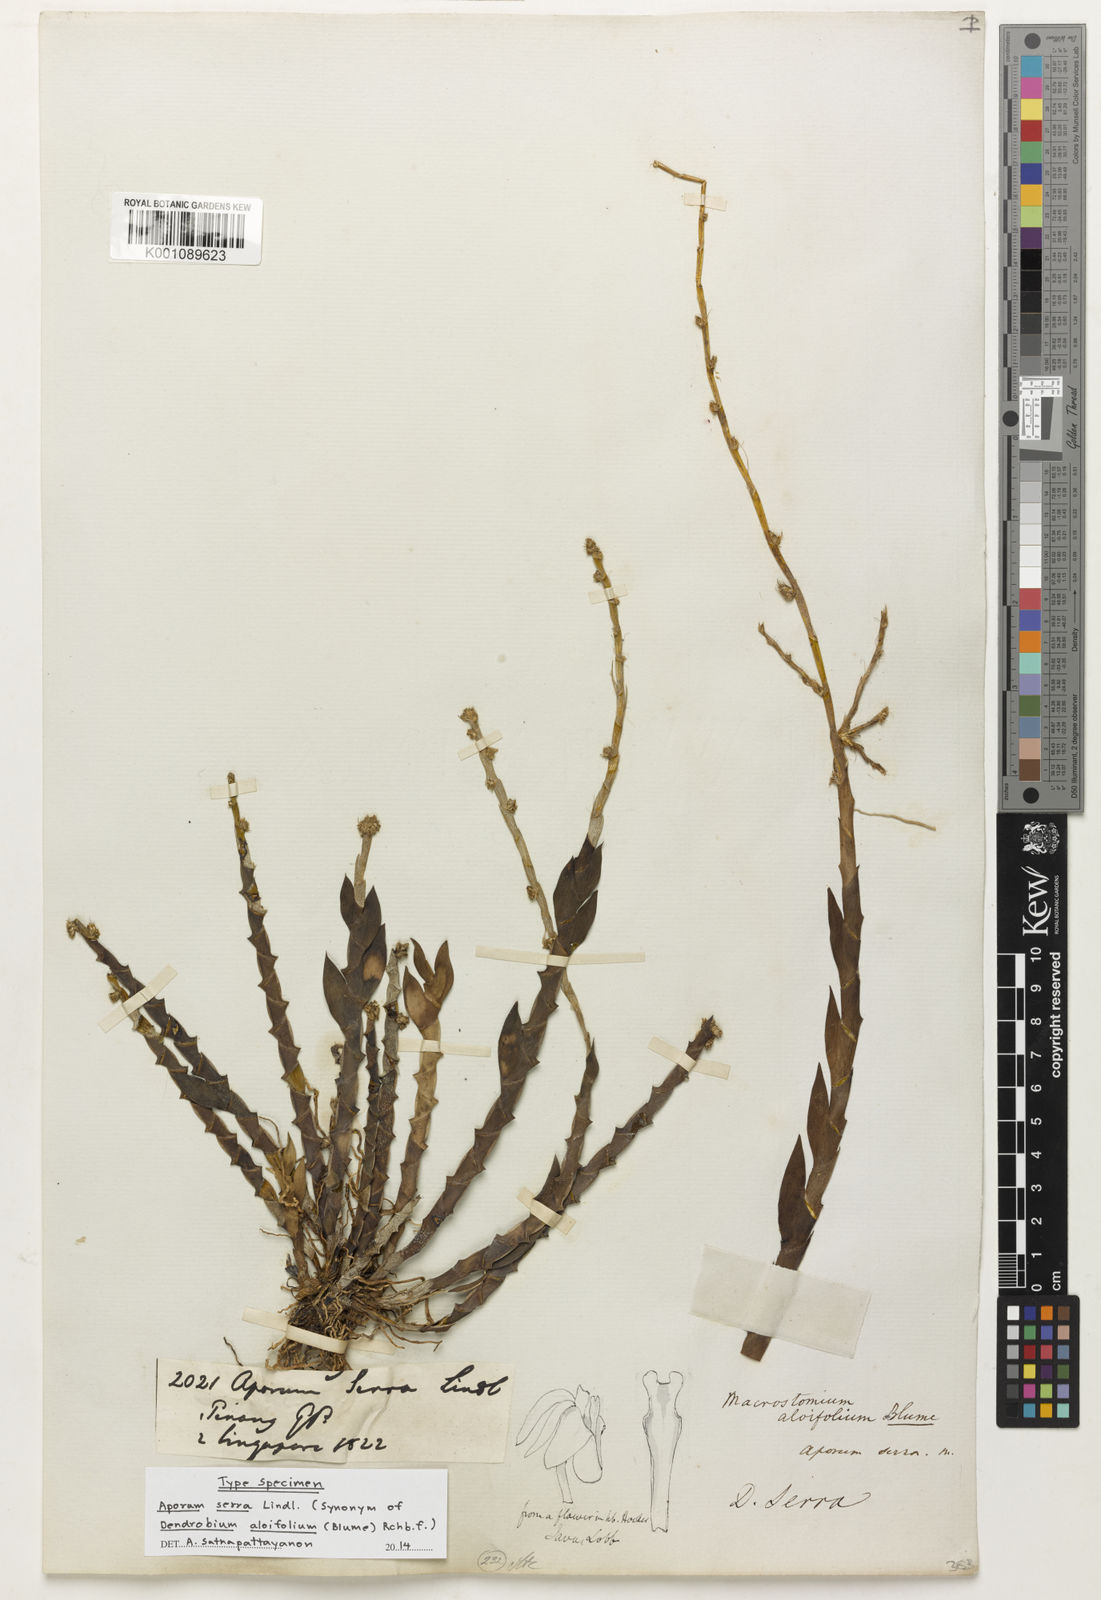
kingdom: Plantae
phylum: Tracheophyta
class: Liliopsida
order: Asparagales
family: Orchidaceae
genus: Dendrobium
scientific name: Dendrobium aloifolium
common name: Aloe-like dendrobium
